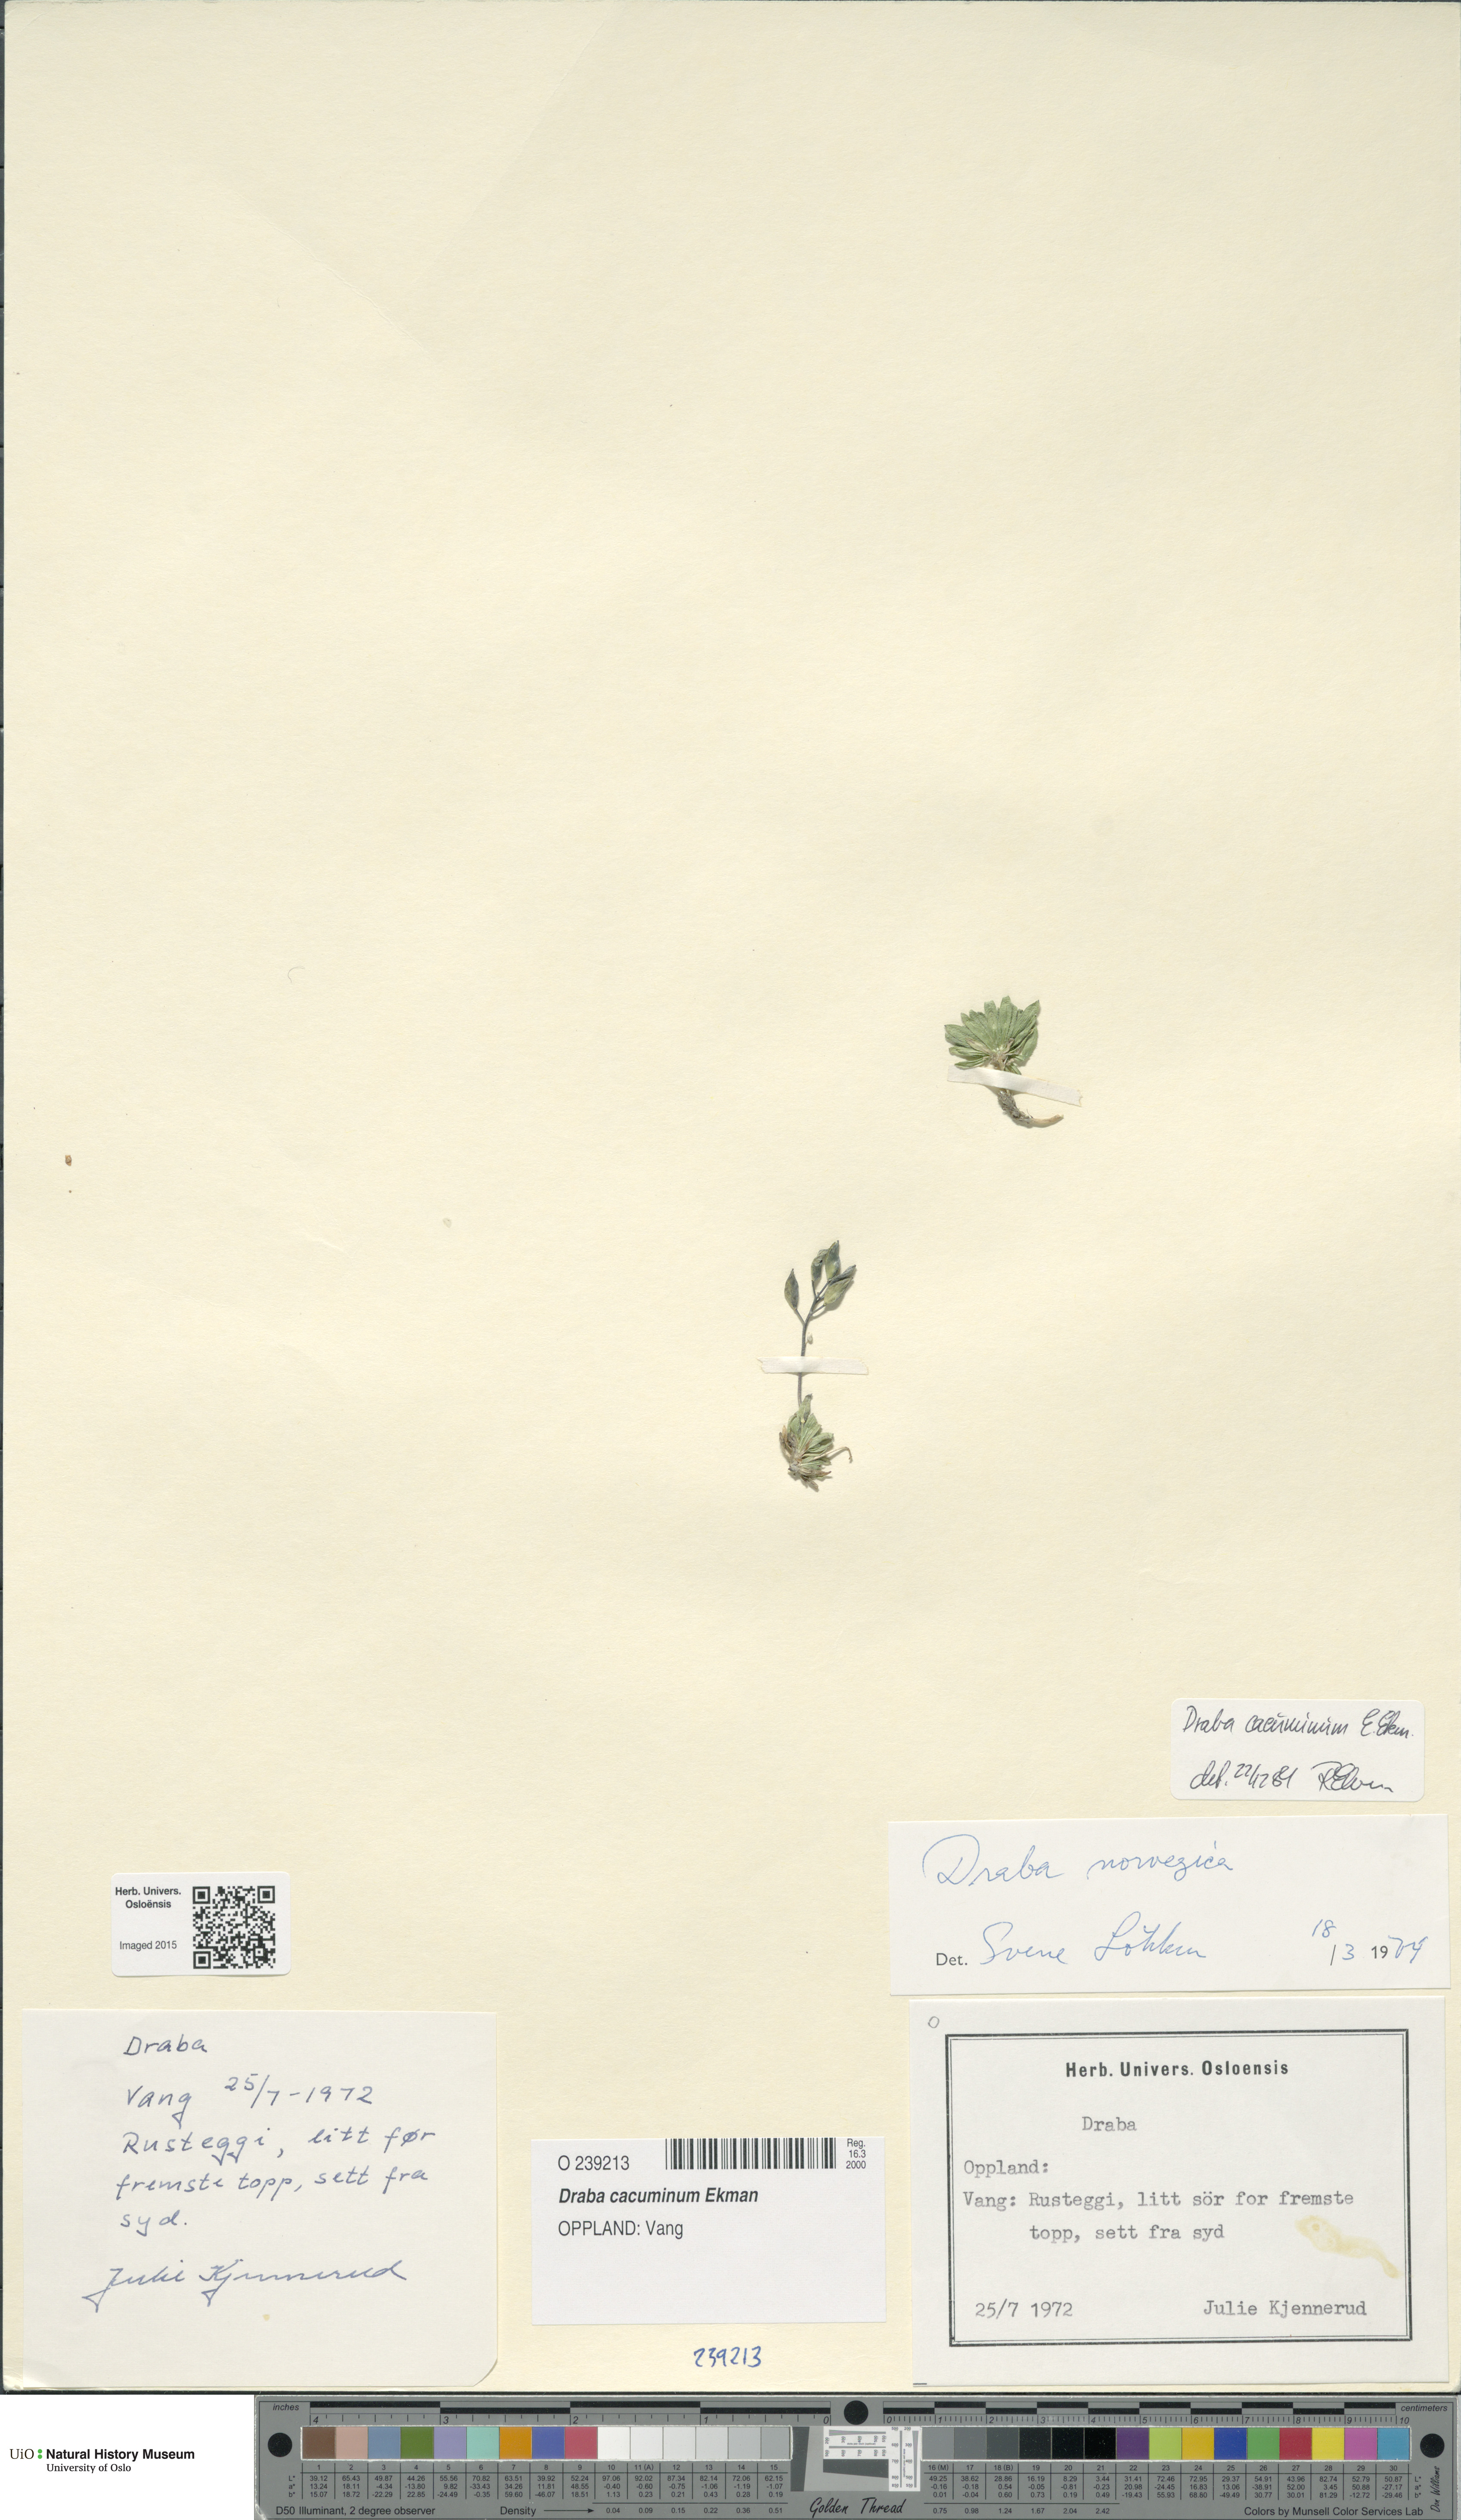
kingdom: Plantae
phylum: Tracheophyta
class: Magnoliopsida
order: Brassicales
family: Brassicaceae
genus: Draba
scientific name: Draba cacuminum
